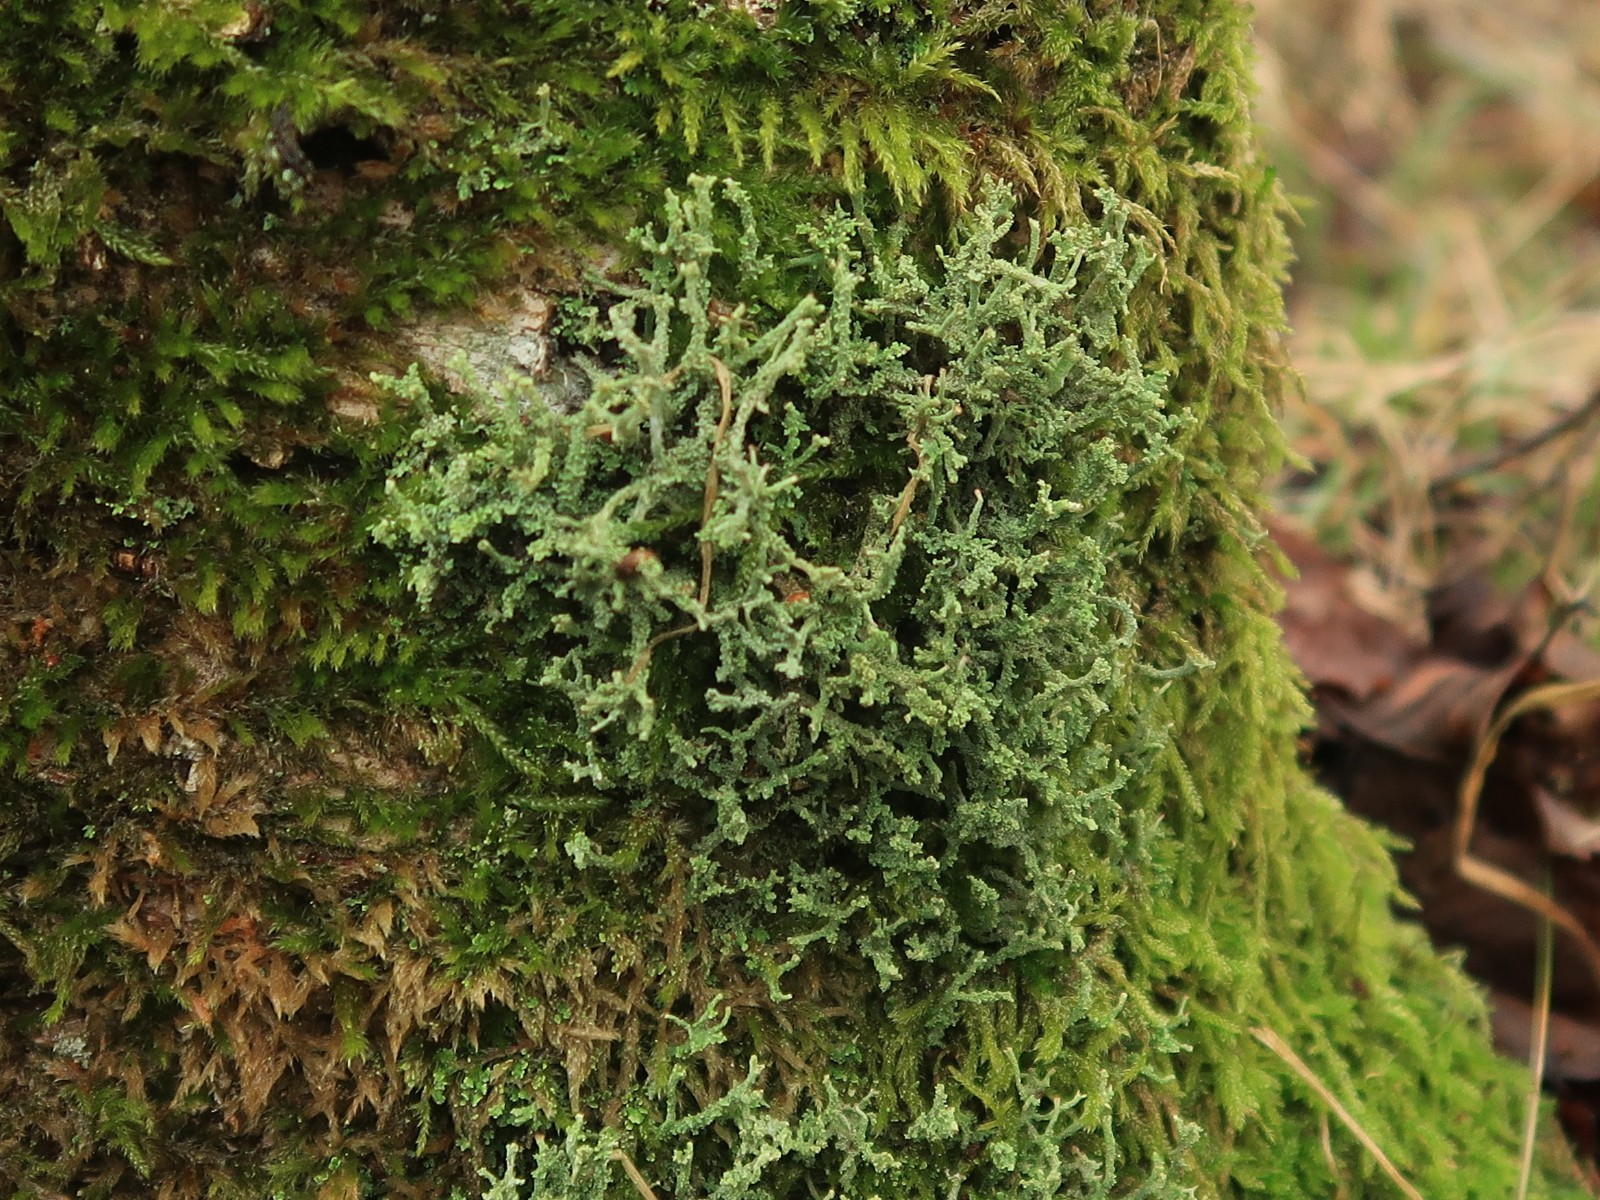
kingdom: Fungi
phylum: Ascomycota
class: Lecanoromycetes
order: Lecanorales
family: Cladoniaceae
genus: Cladonia
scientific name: Cladonia polydactyla
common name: vifte-bægerlav
